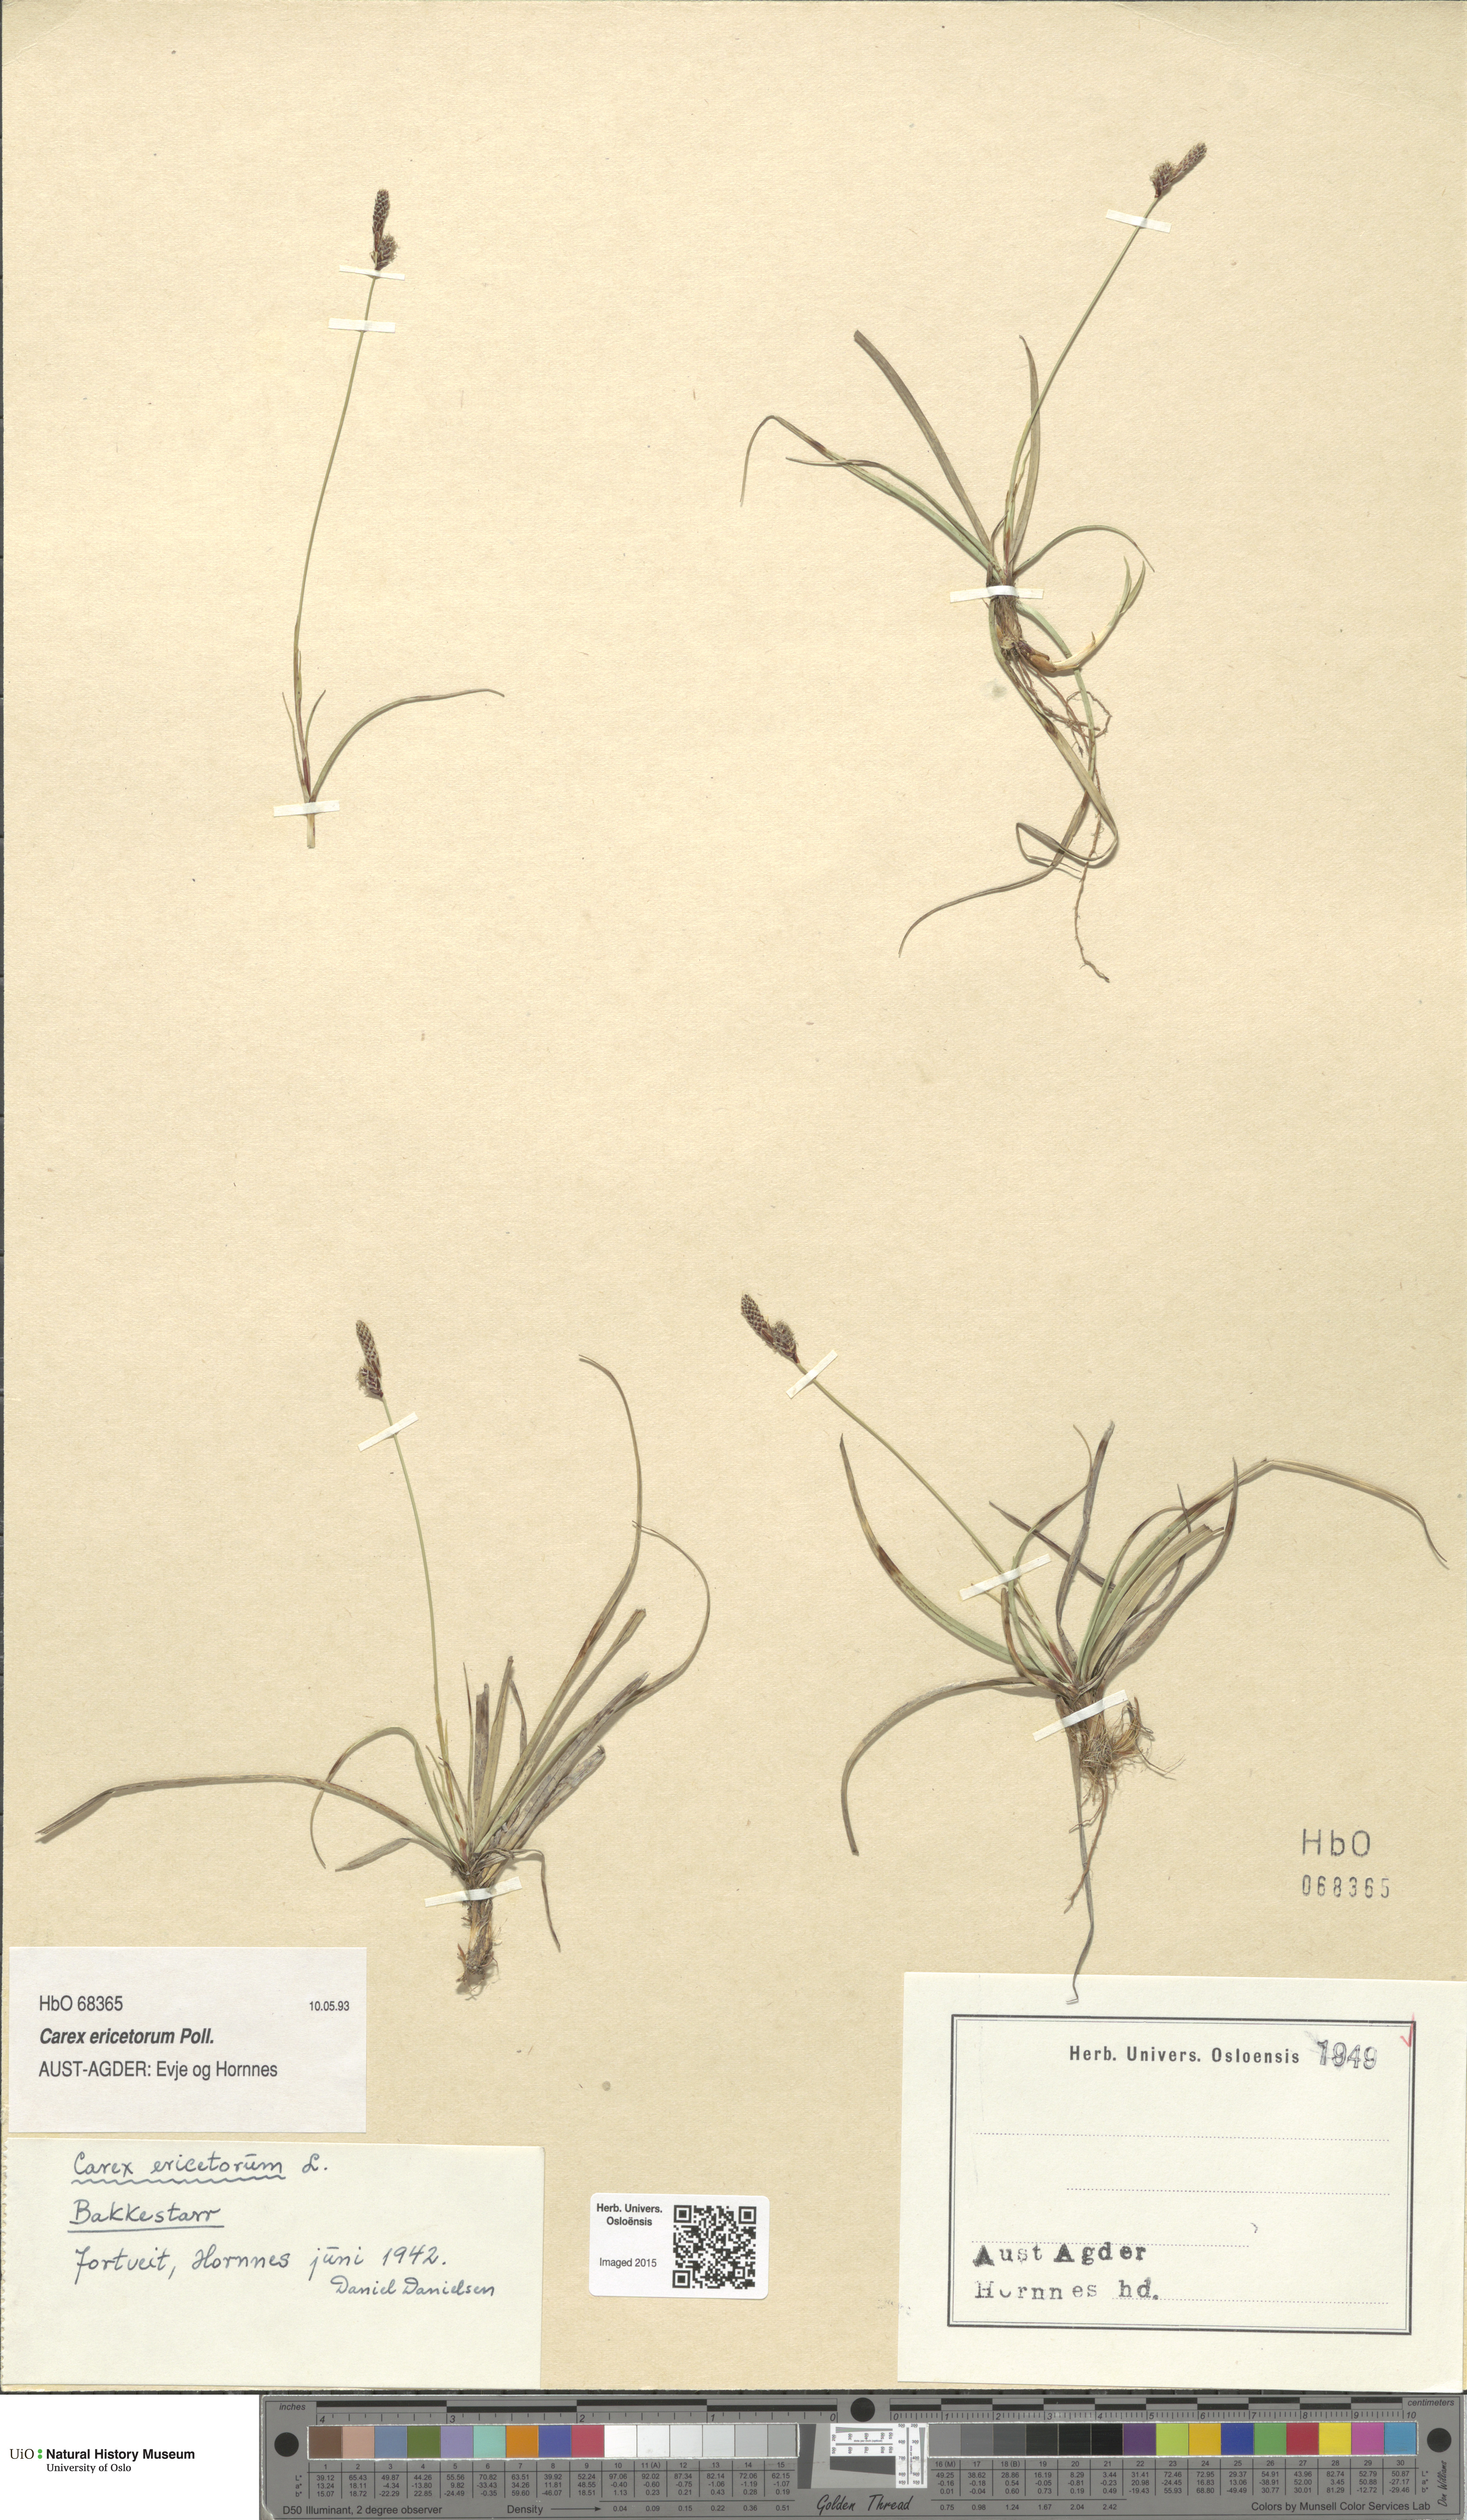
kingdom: Plantae
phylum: Tracheophyta
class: Liliopsida
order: Poales
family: Cyperaceae
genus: Carex
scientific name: Carex ericetorum
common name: Rare spring-sedge
